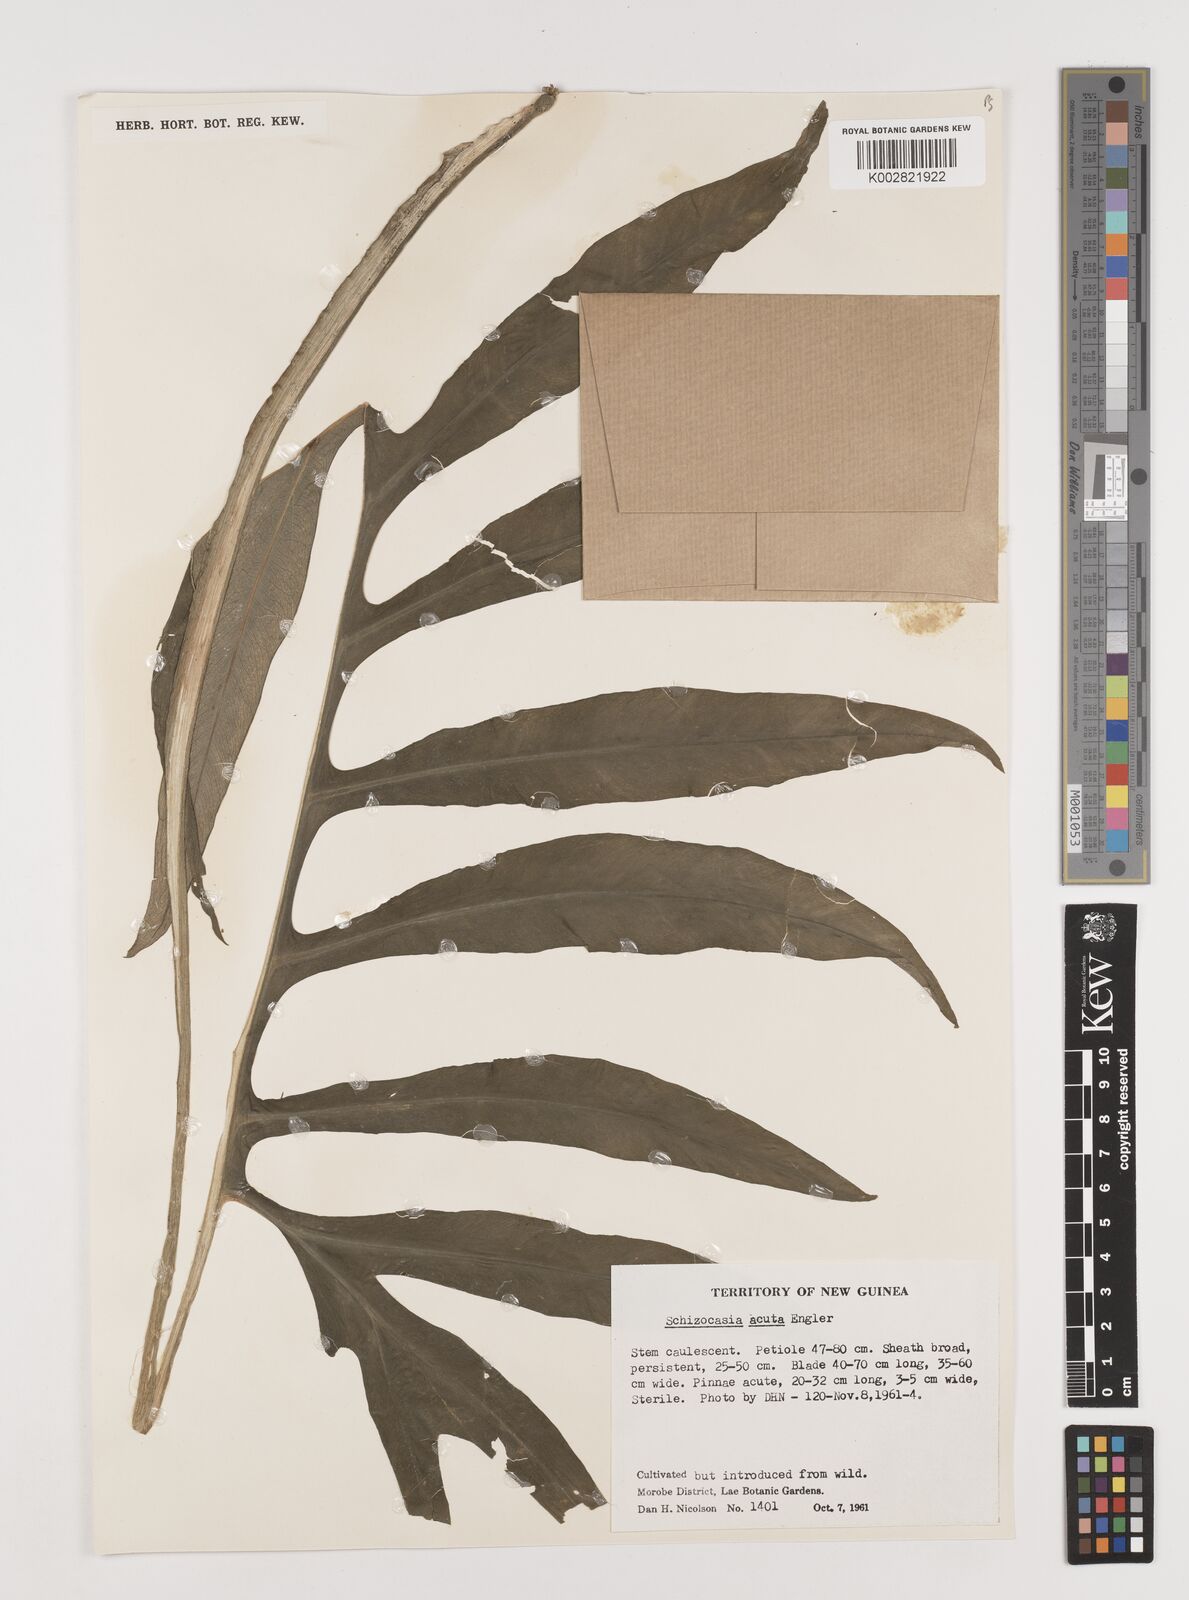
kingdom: Plantae
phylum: Tracheophyta
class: Liliopsida
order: Alismatales
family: Araceae
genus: Alocasia
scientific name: Alocasia brancifolia
